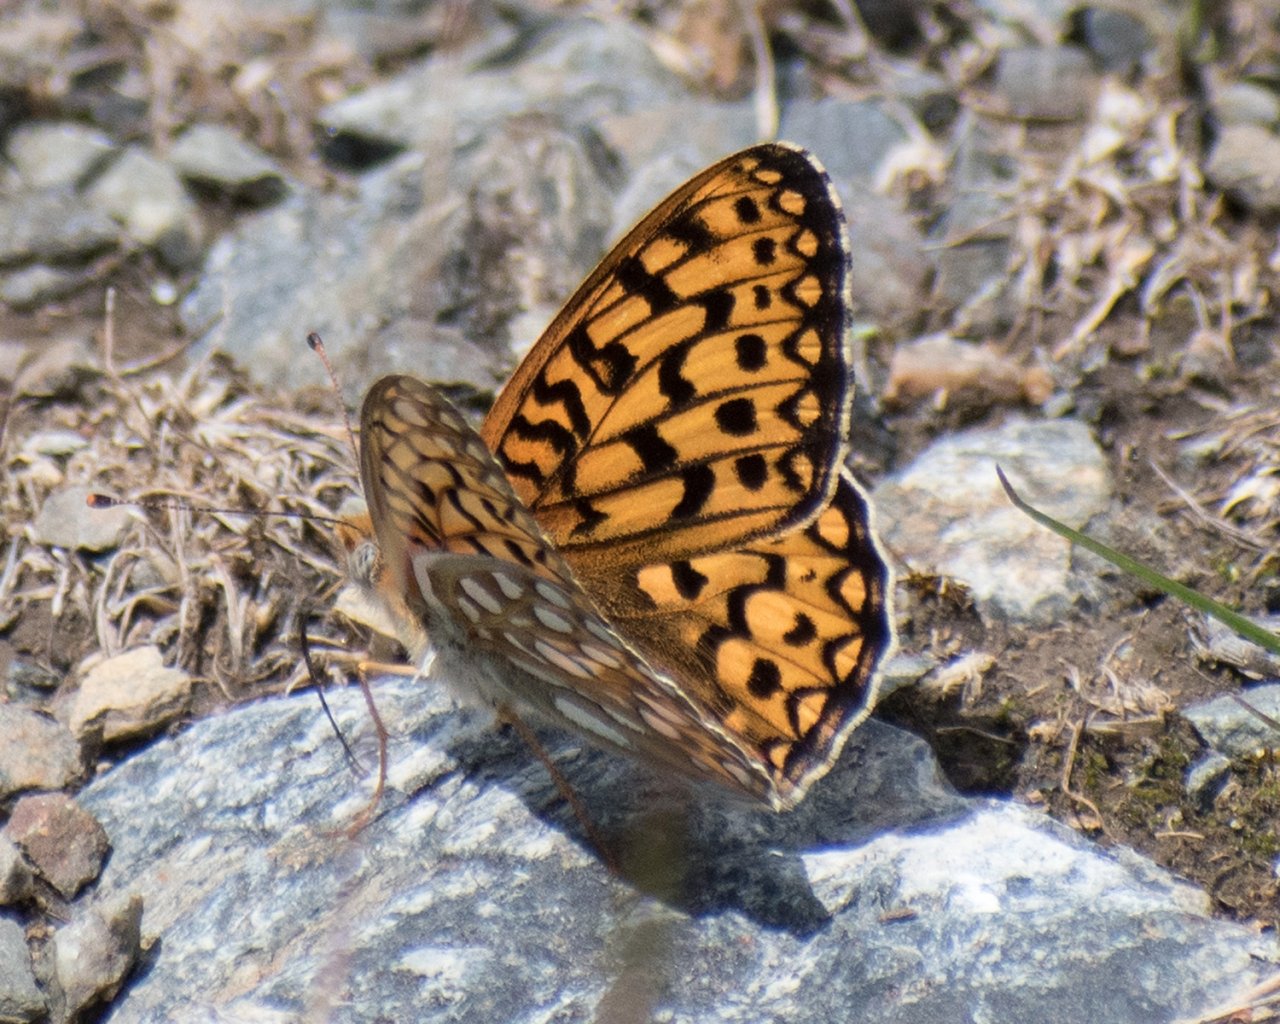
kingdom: Animalia
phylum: Arthropoda
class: Insecta
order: Lepidoptera
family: Nymphalidae
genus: Speyeria
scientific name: Speyeria callippe
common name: Callippe Fritillary
